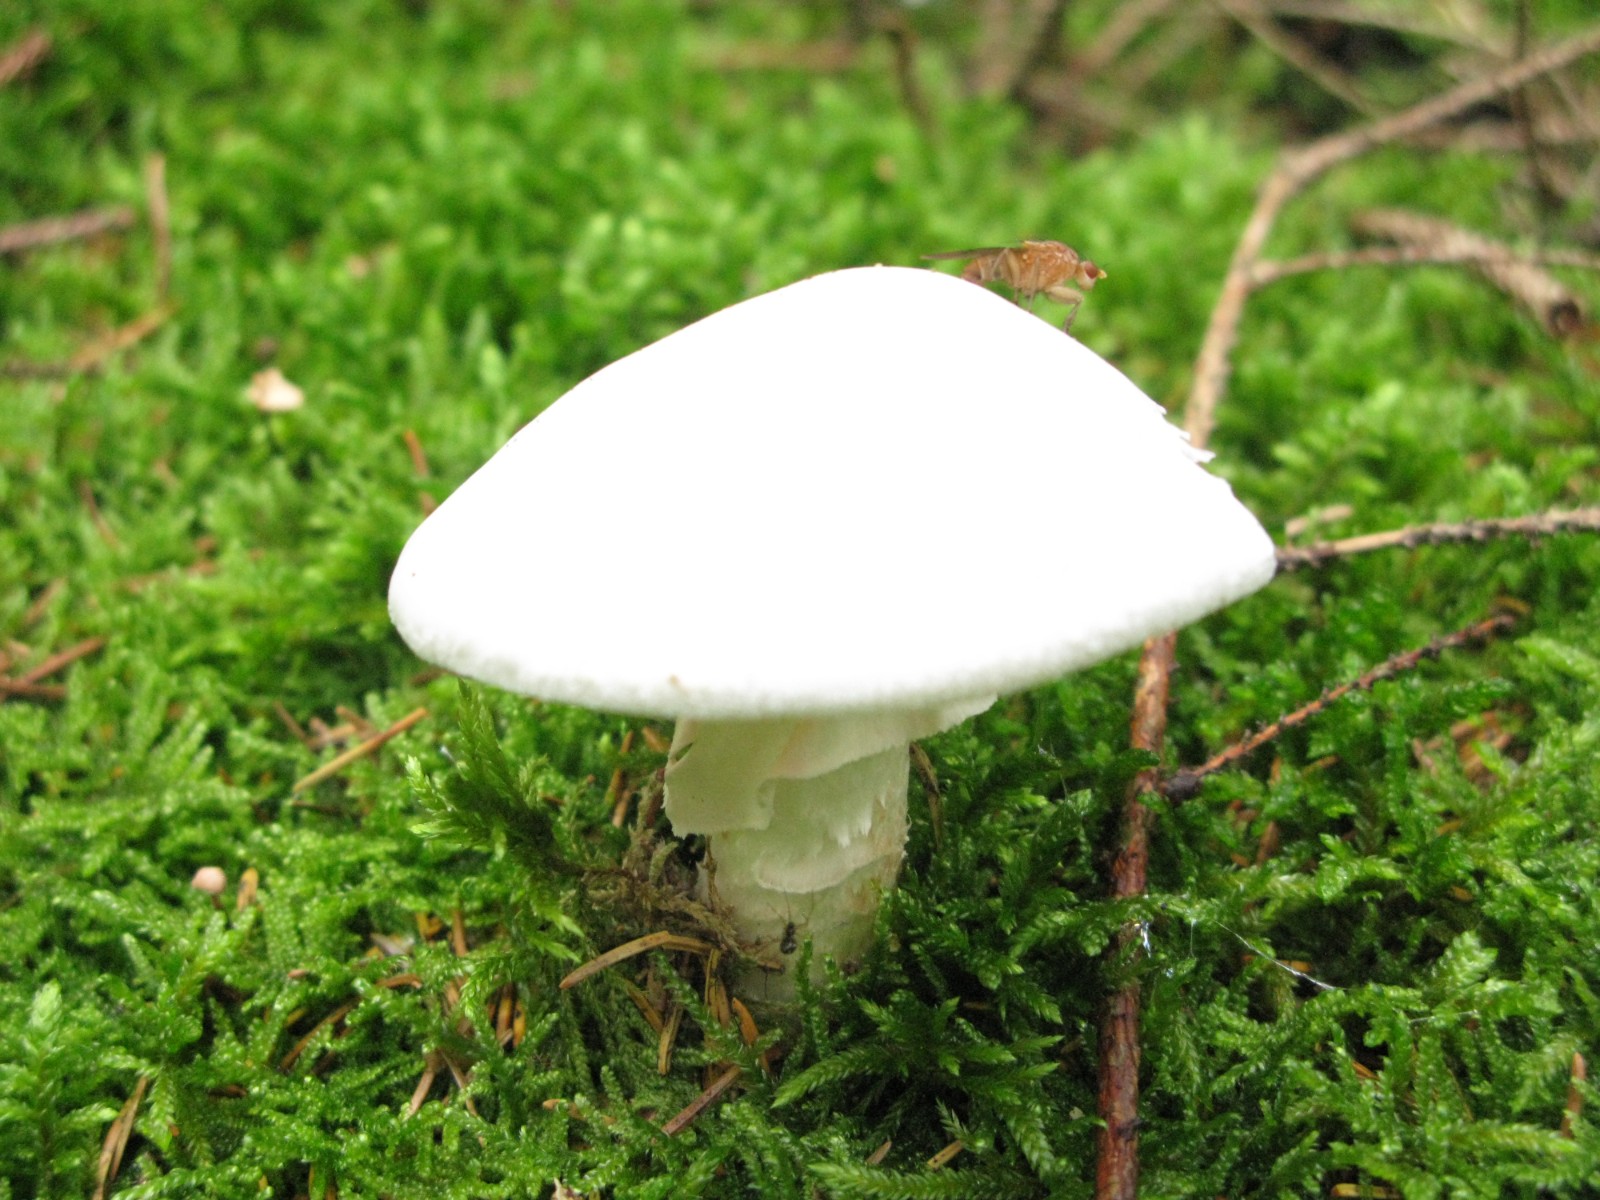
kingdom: Fungi
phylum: Basidiomycota
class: Agaricomycetes
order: Agaricales
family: Amanitaceae
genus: Amanita
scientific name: Amanita virosa
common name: snehvid fluesvamp
